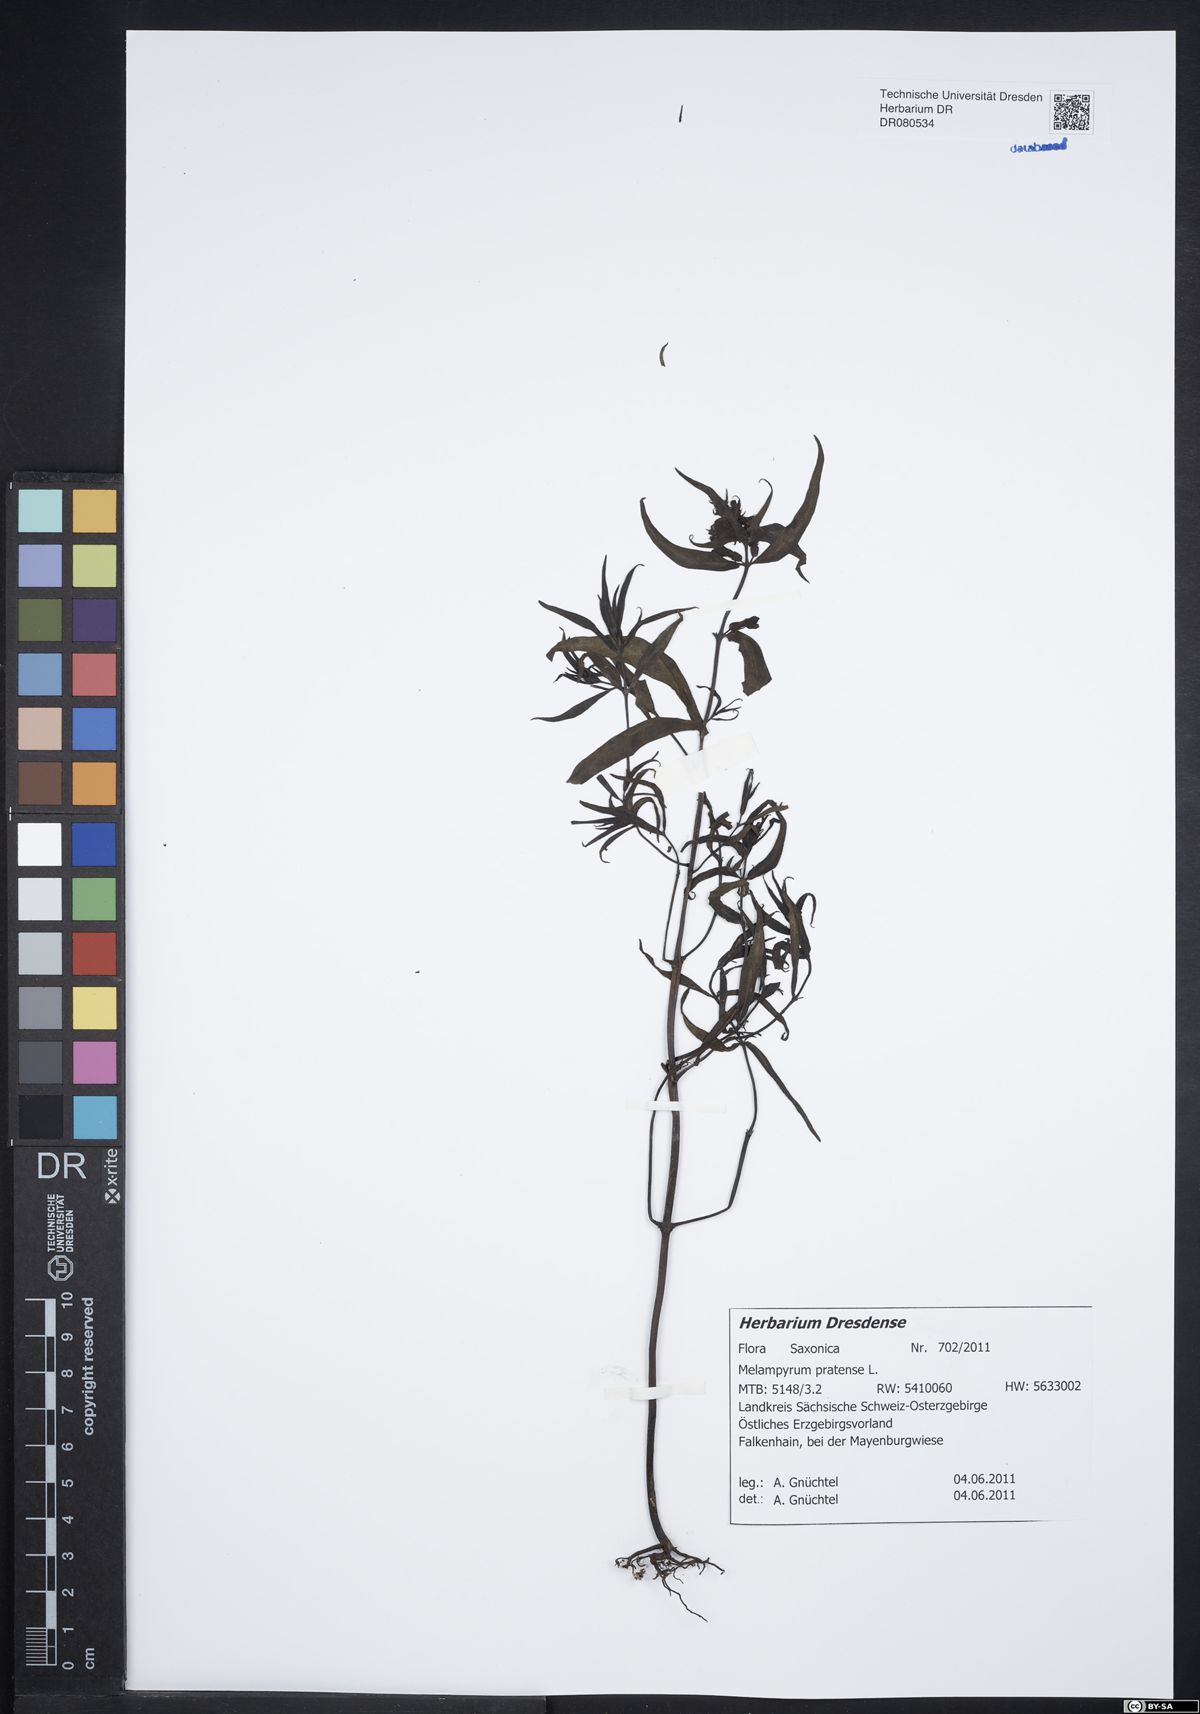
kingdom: Plantae
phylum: Tracheophyta
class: Magnoliopsida
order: Lamiales
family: Orobanchaceae
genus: Melampyrum
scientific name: Melampyrum pratense
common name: Common cow-wheat
